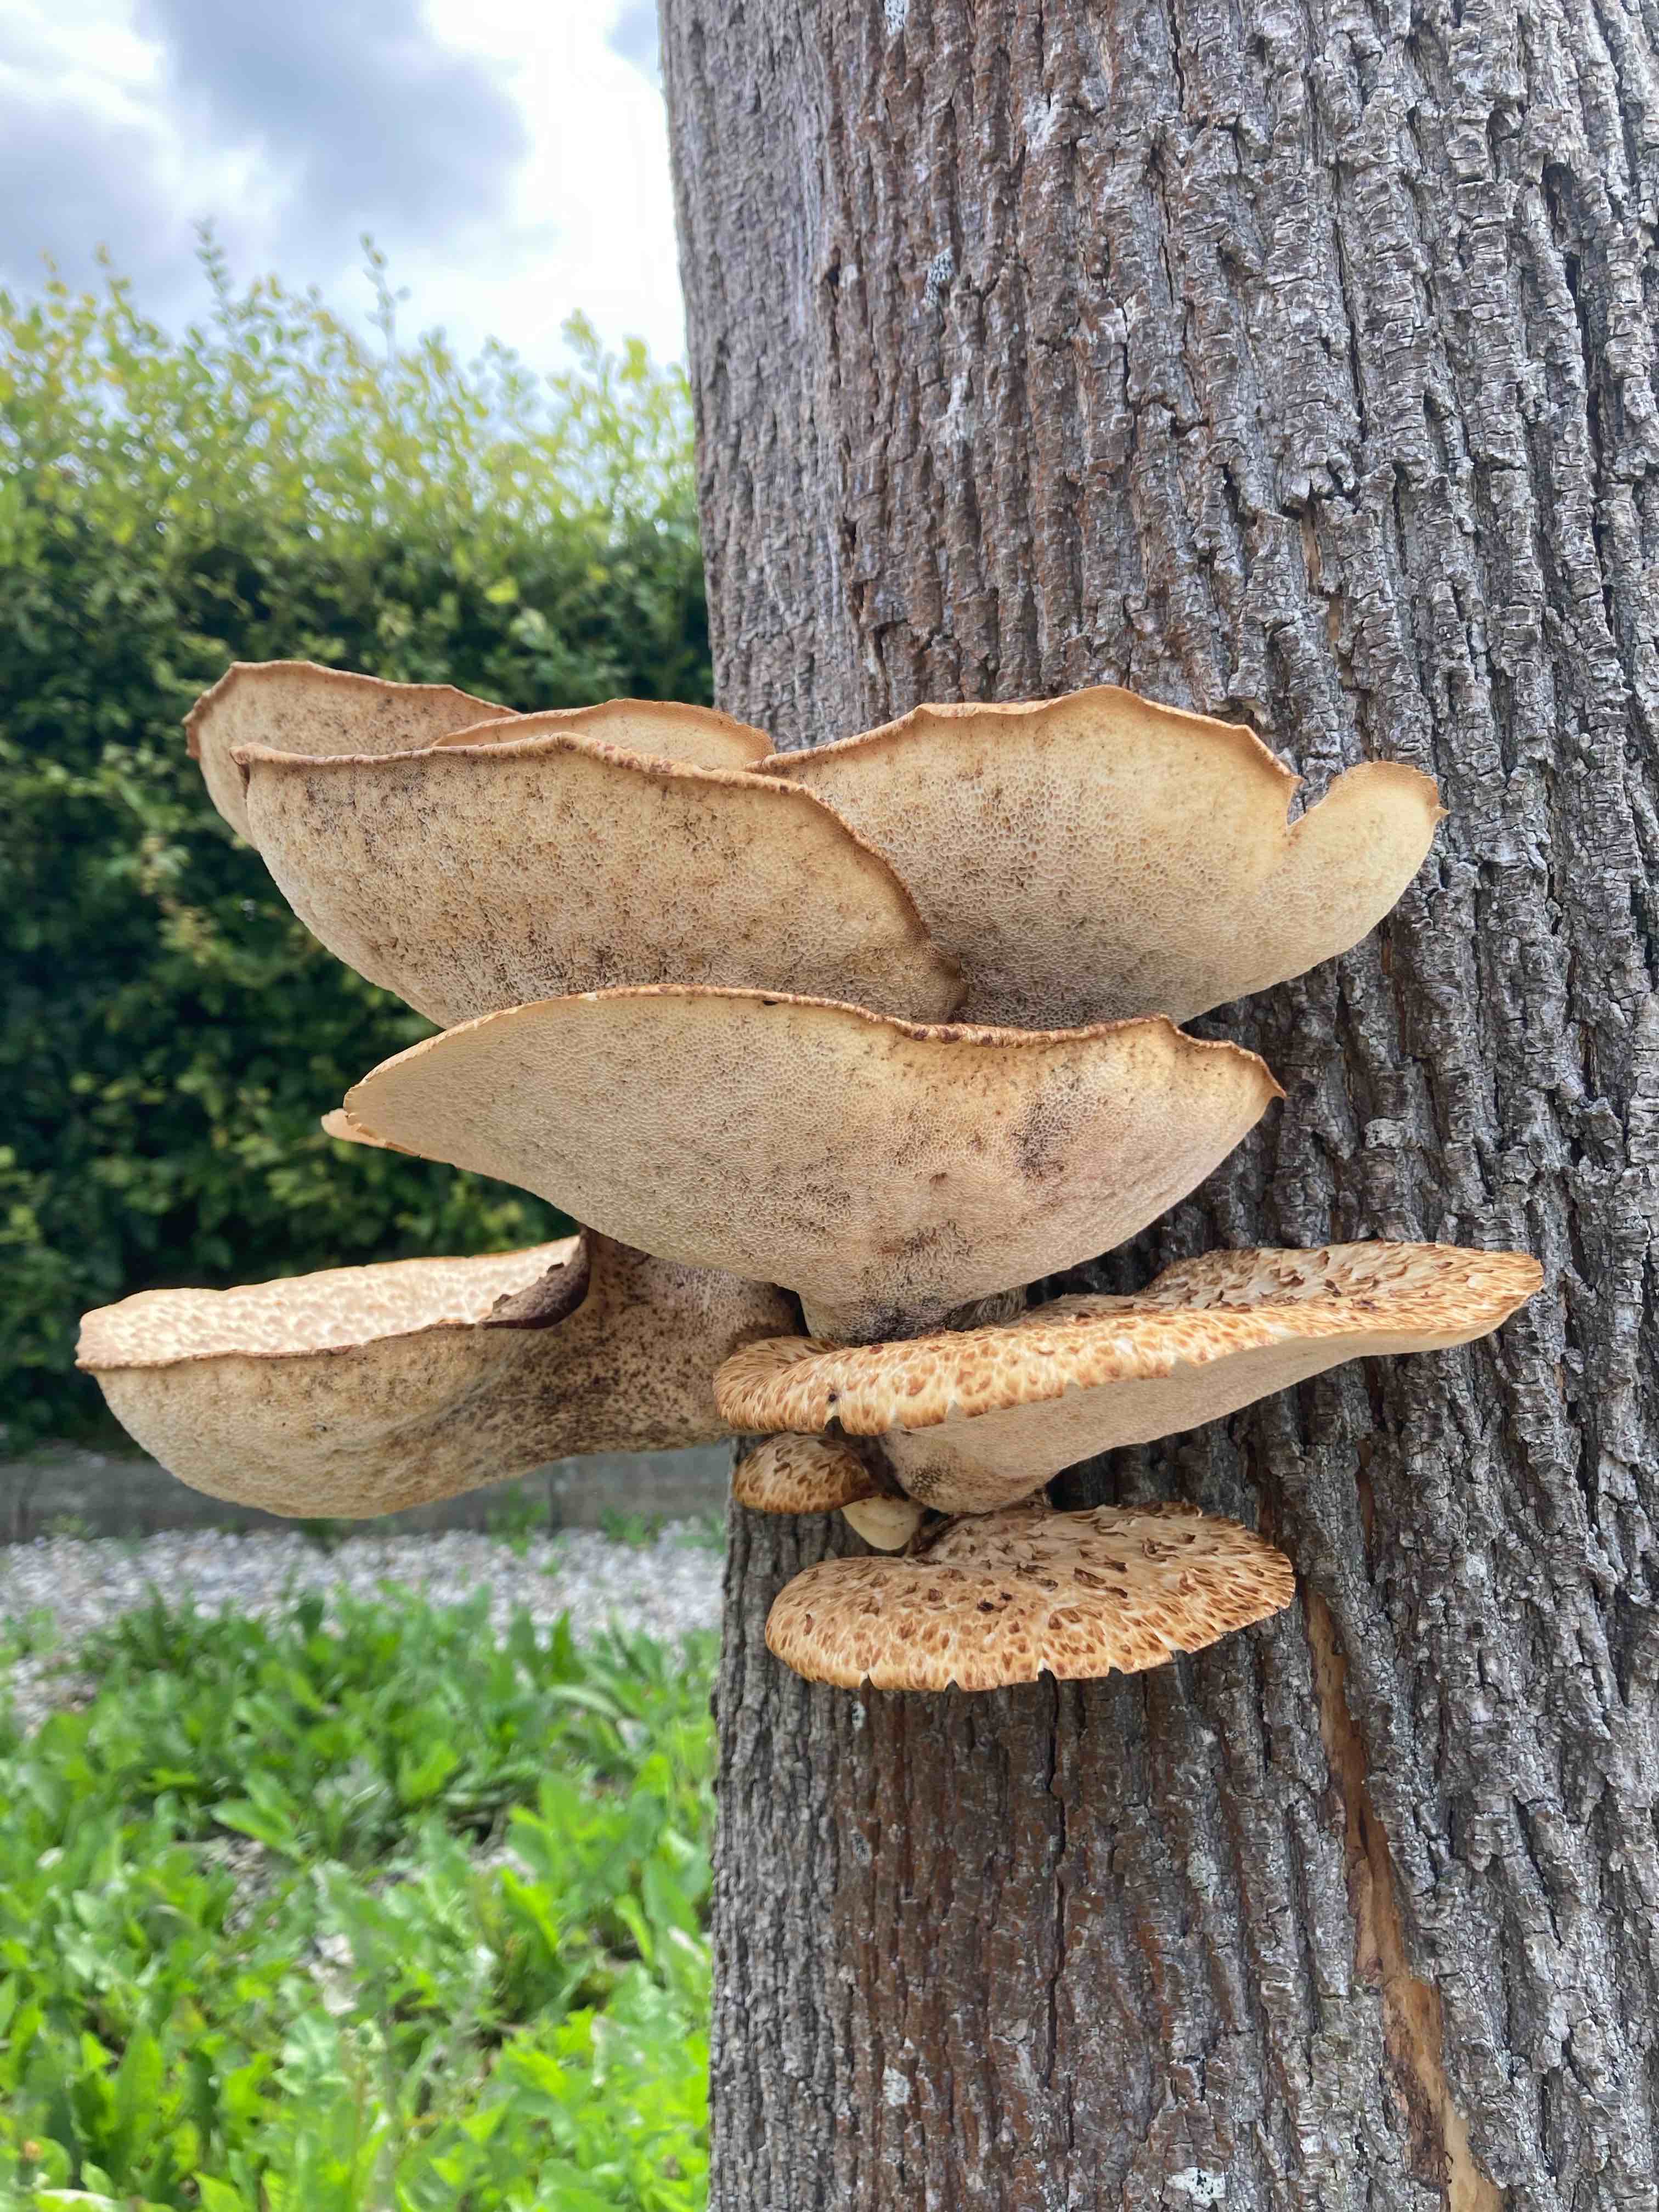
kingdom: Fungi
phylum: Basidiomycota
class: Agaricomycetes
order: Polyporales
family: Polyporaceae
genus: Cerioporus
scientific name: Cerioporus squamosus
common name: skællet stilkporesvamp
